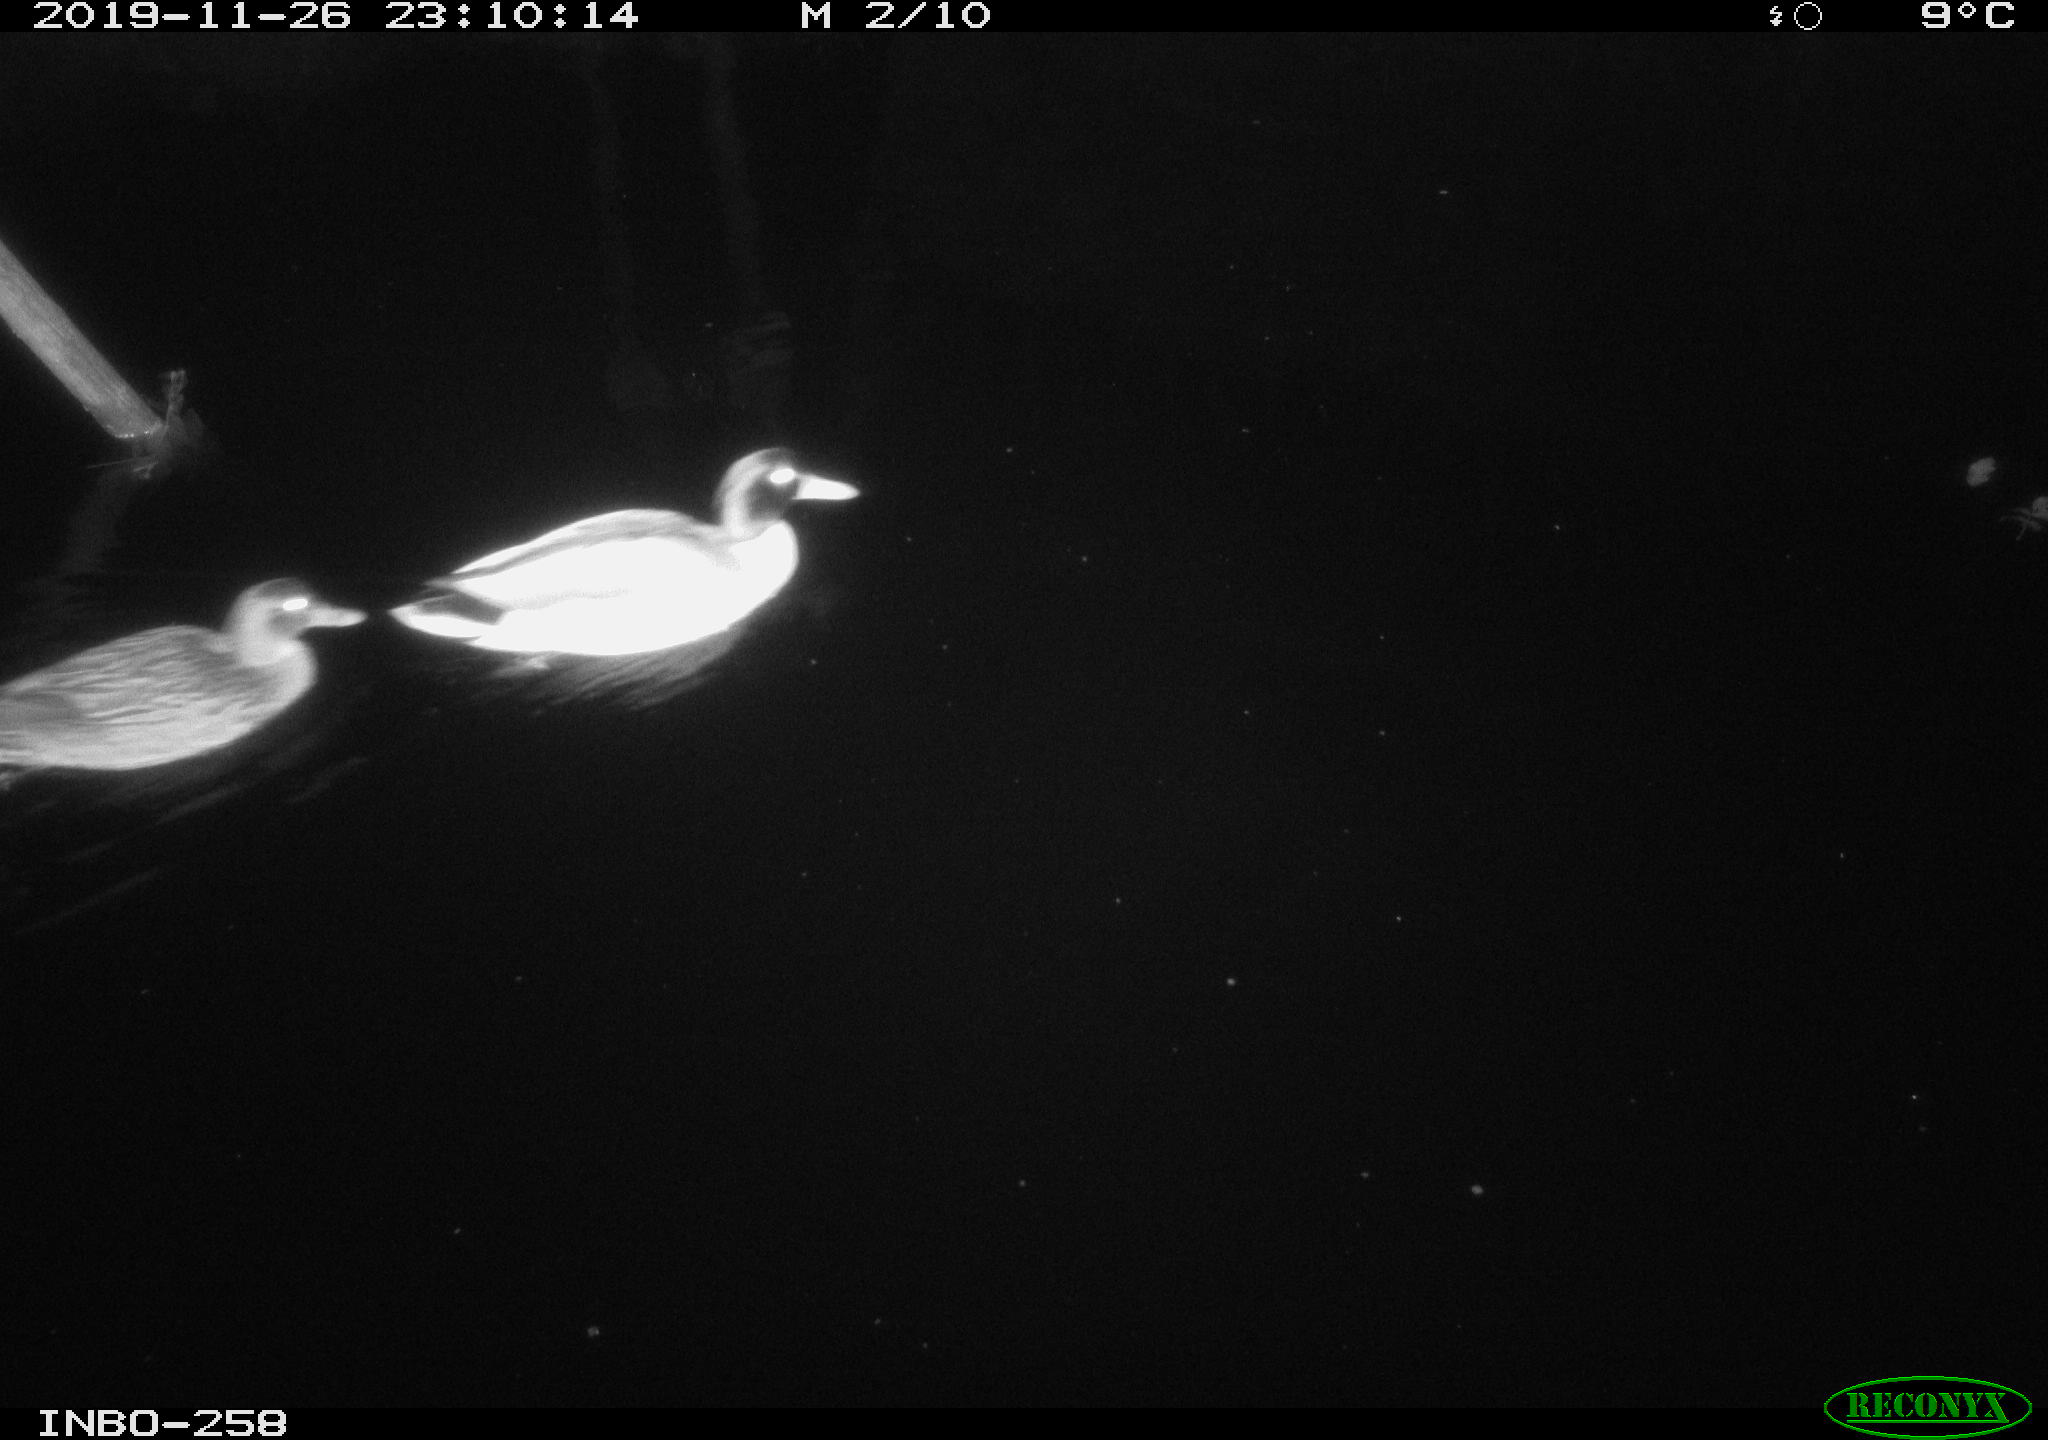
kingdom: Animalia
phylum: Chordata
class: Aves
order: Anseriformes
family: Anatidae
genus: Anas
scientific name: Anas platyrhynchos
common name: Mallard
